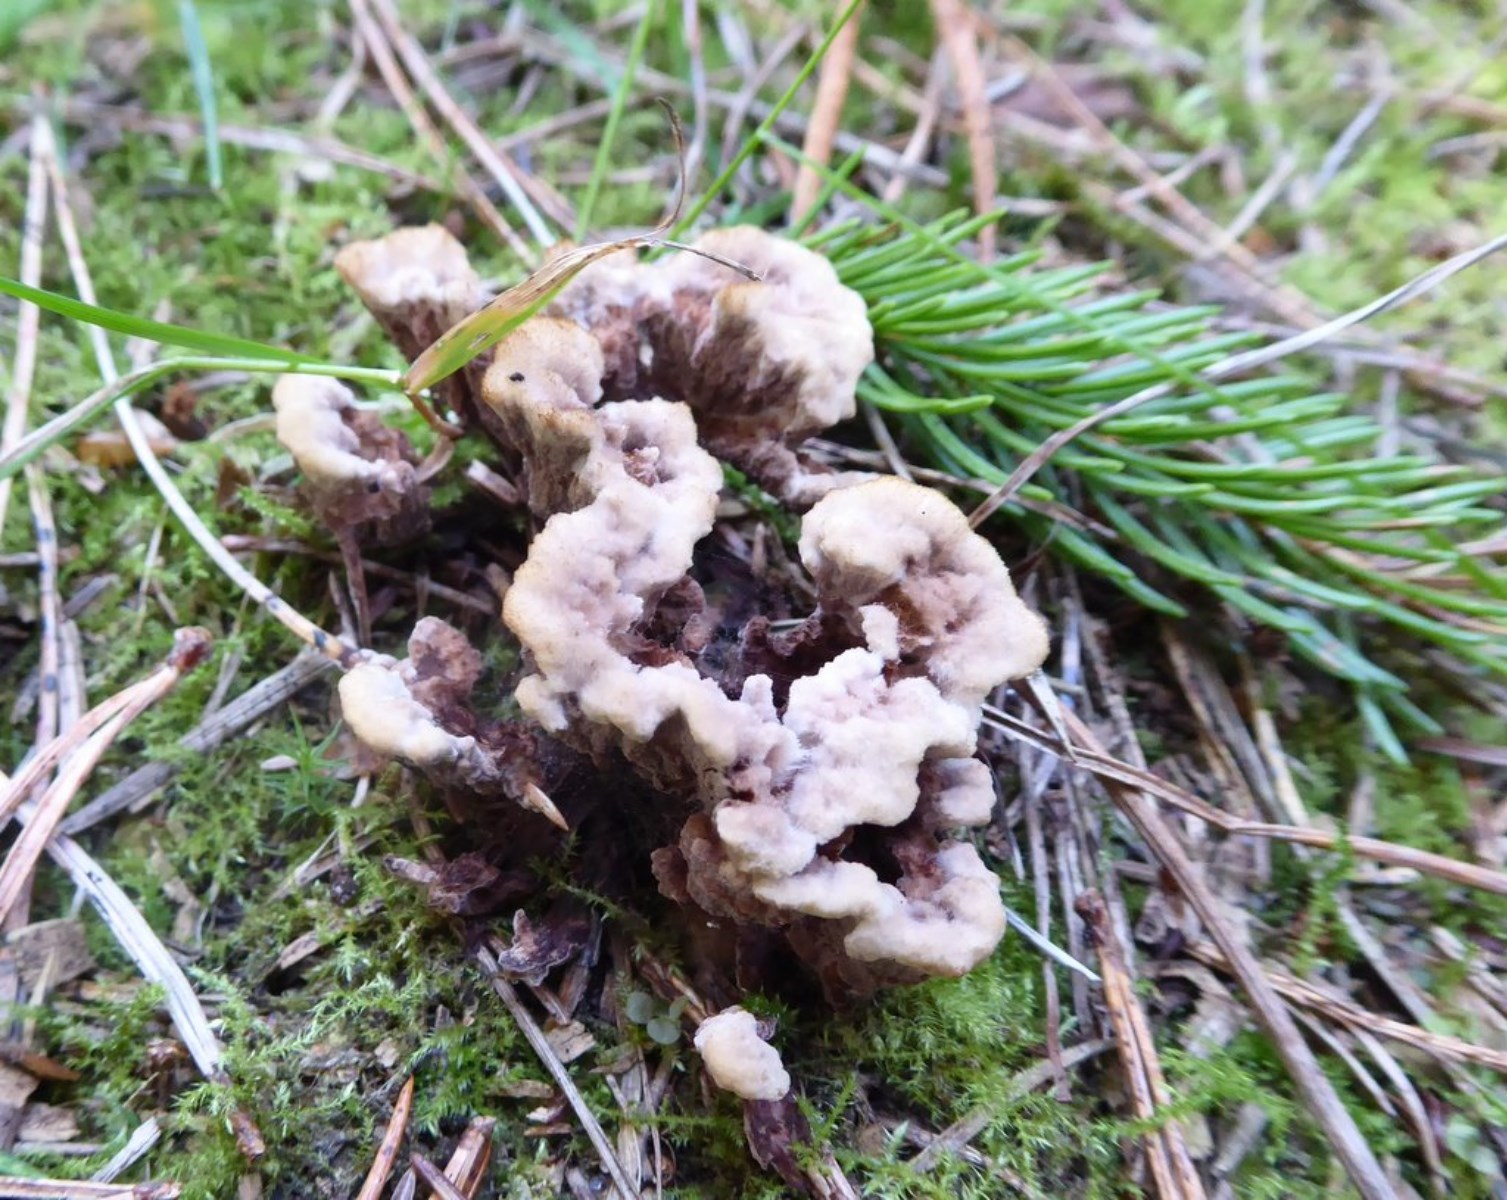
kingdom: Fungi
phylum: Basidiomycota
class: Agaricomycetes
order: Thelephorales
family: Thelephoraceae
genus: Thelephora
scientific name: Thelephora terrestris
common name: fliget frynsesvamp
